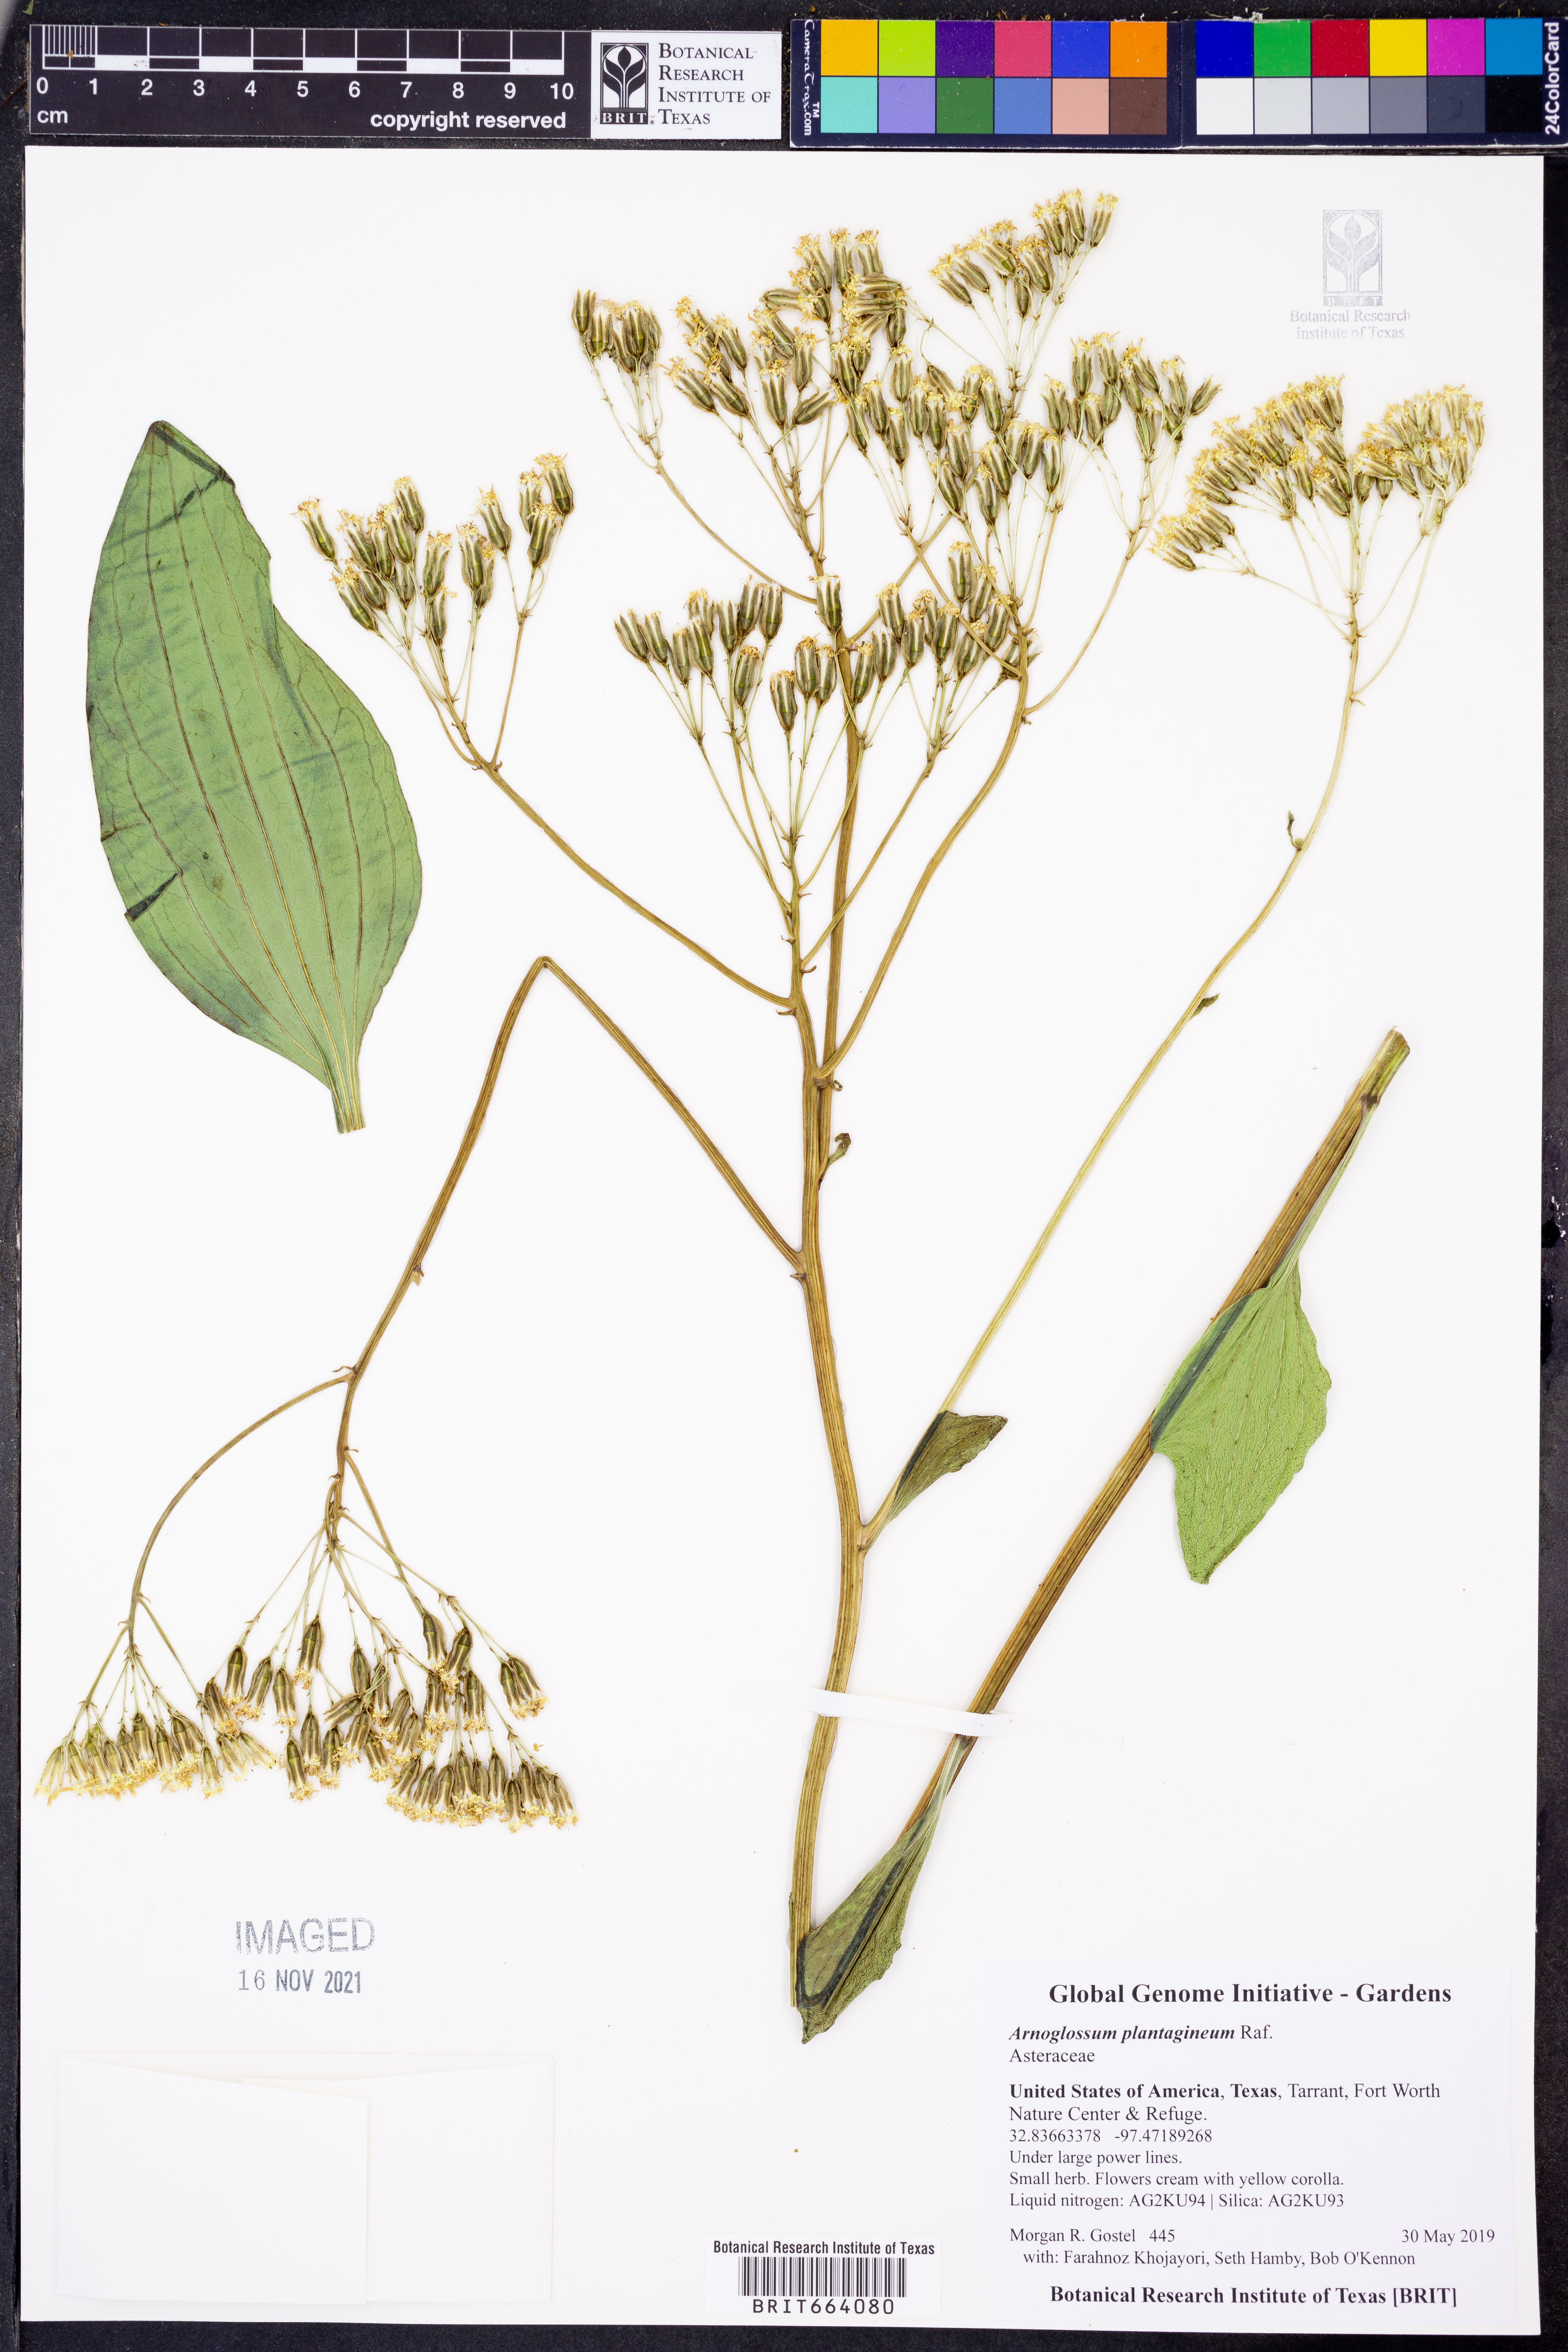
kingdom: Plantae
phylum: Tracheophyta
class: Magnoliopsida
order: Asterales
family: Asteraceae
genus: Arnoglossum
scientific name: Arnoglossum plantagineum
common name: Groove-stemmed indian-plantain
